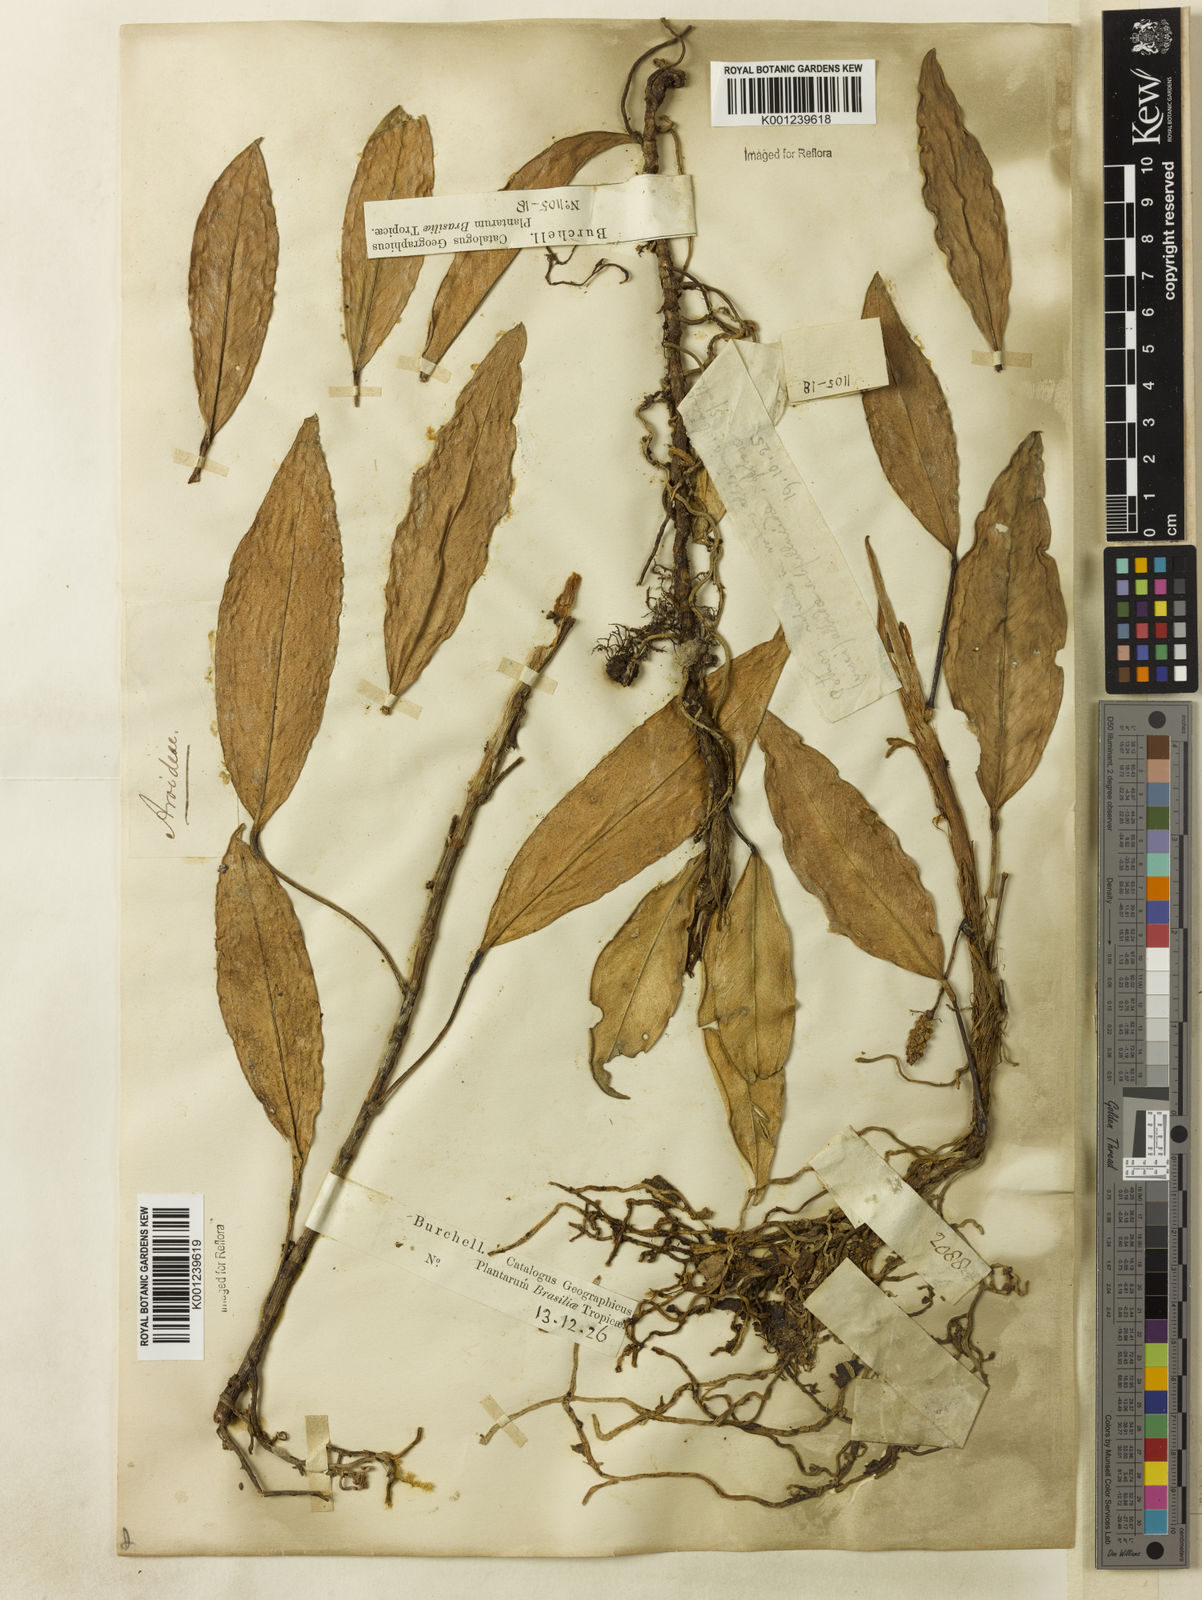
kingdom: Plantae
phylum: Tracheophyta
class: Liliopsida
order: Alismatales
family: Araceae
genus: Anthurium
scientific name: Anthurium scandens
